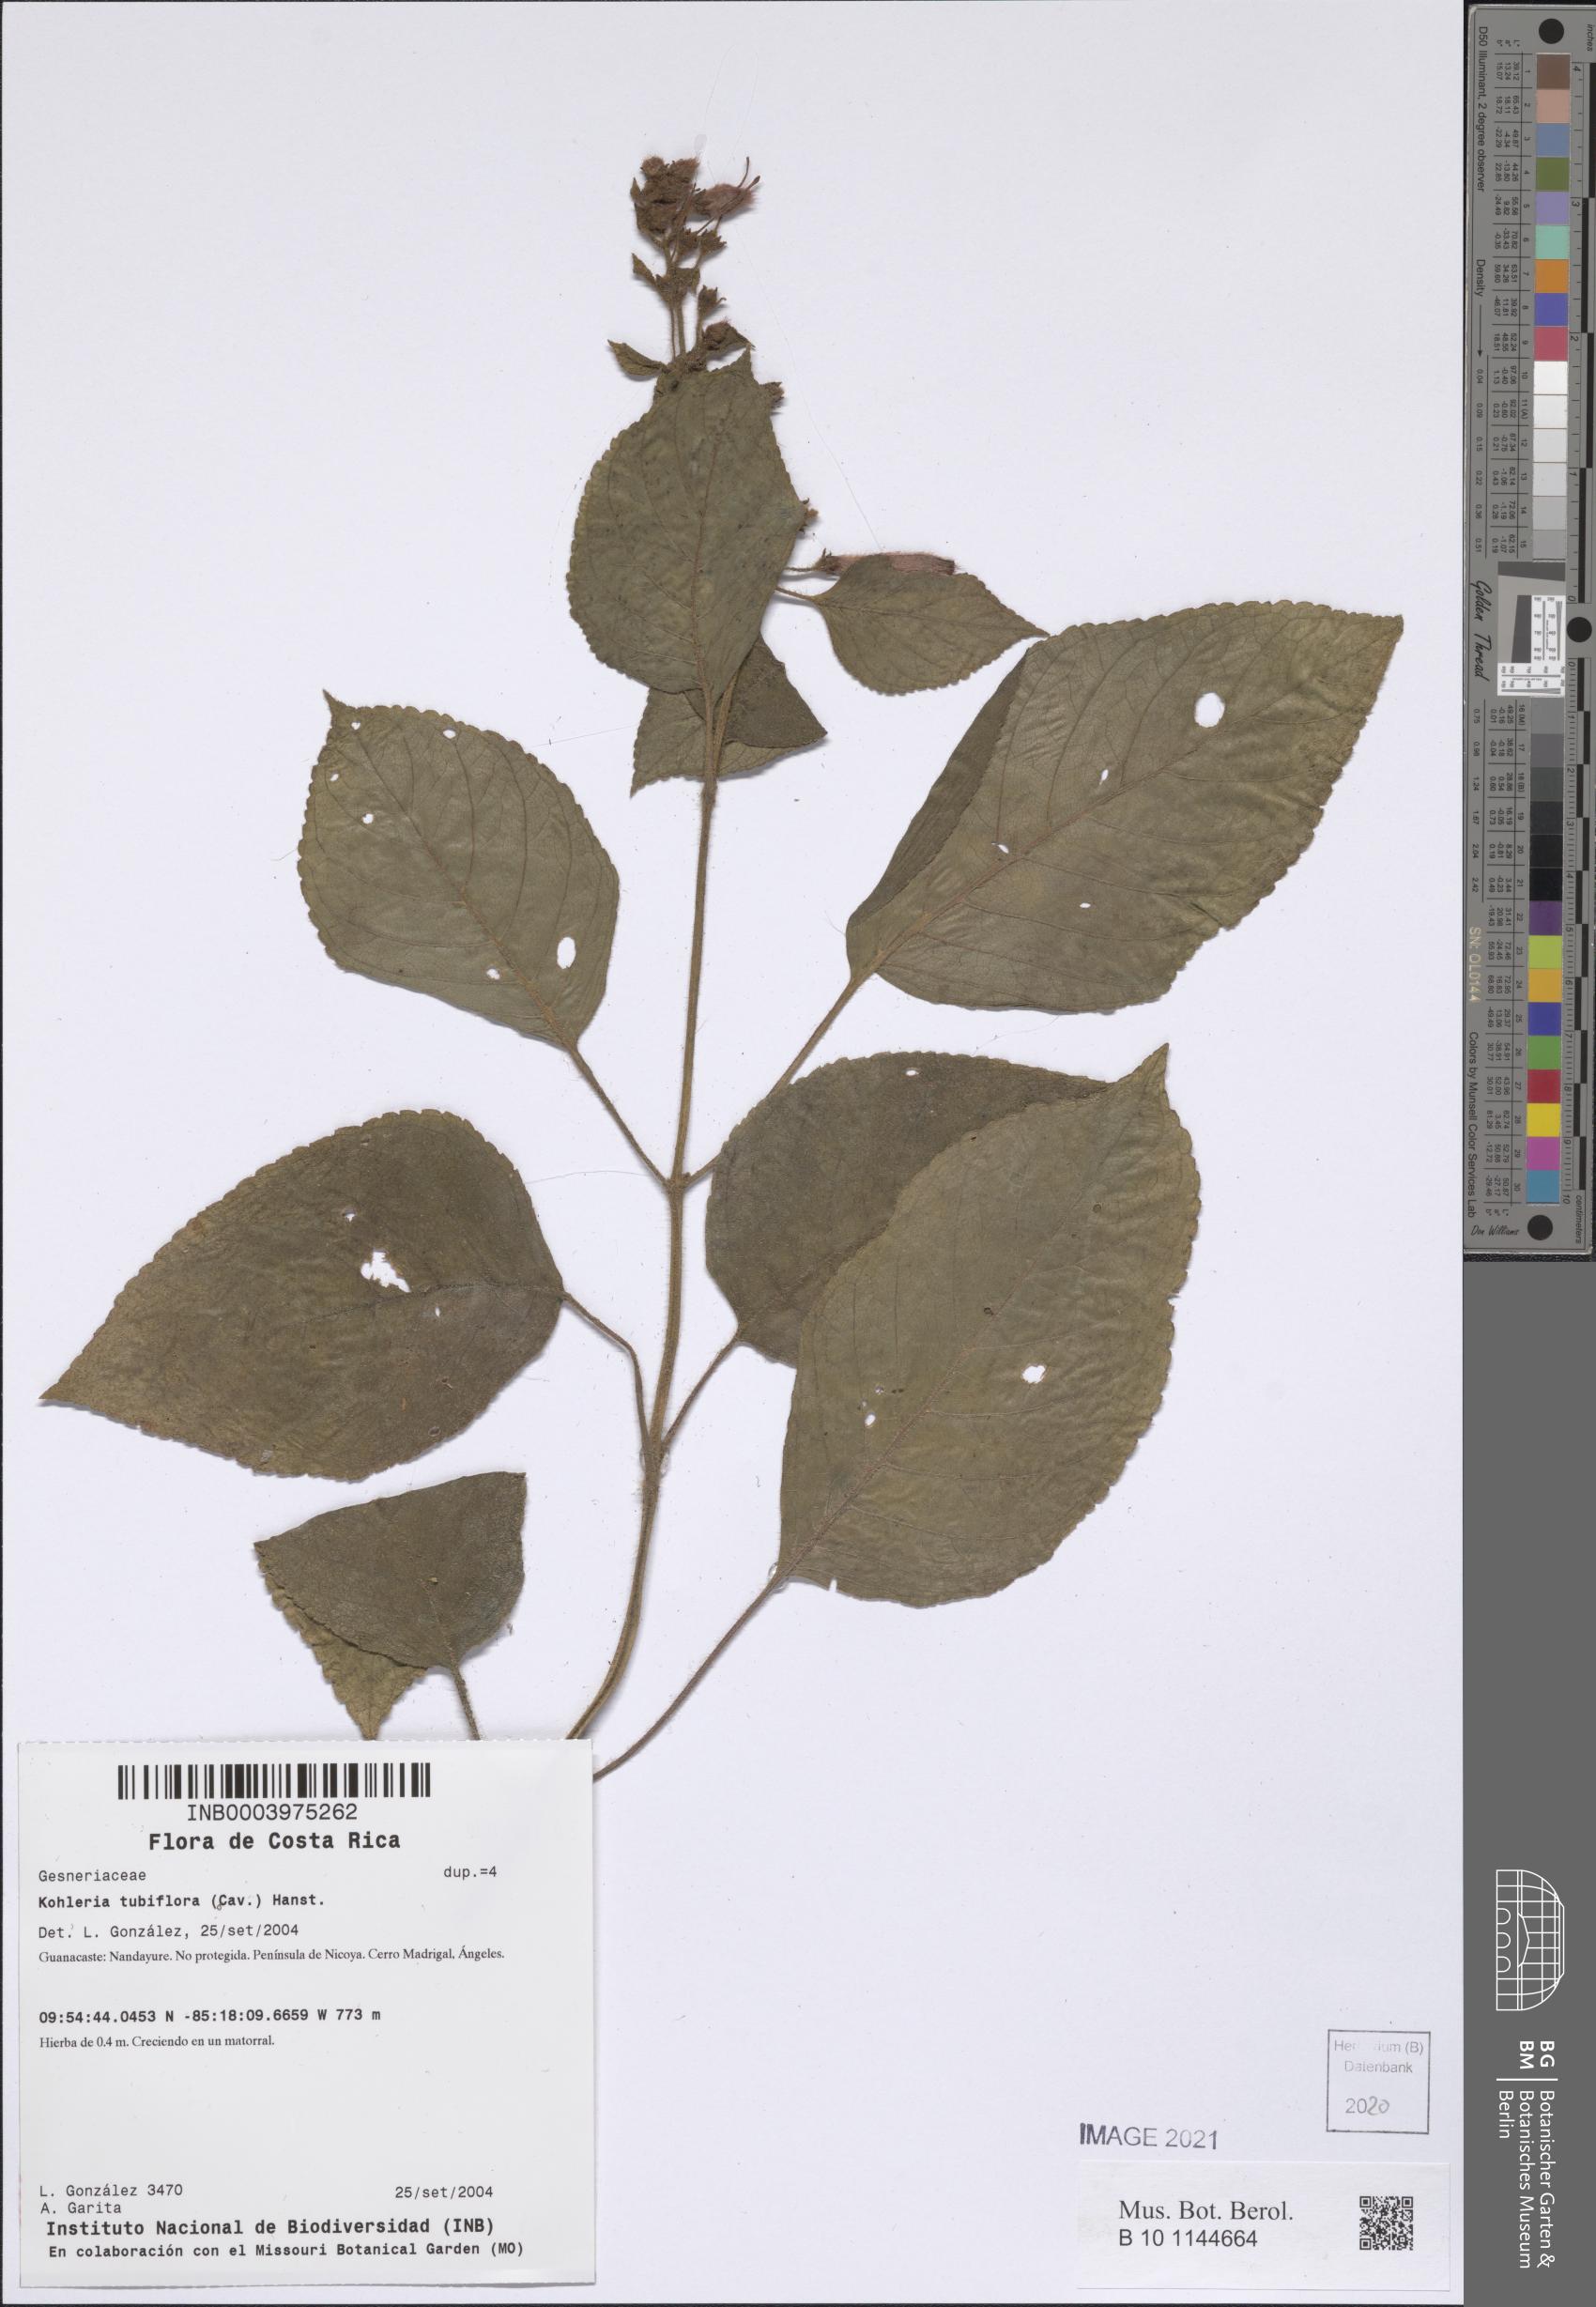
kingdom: Plantae
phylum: Tracheophyta
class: Magnoliopsida
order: Lamiales
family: Gesneriaceae
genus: Kohleria
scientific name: Kohleria tubiflora
